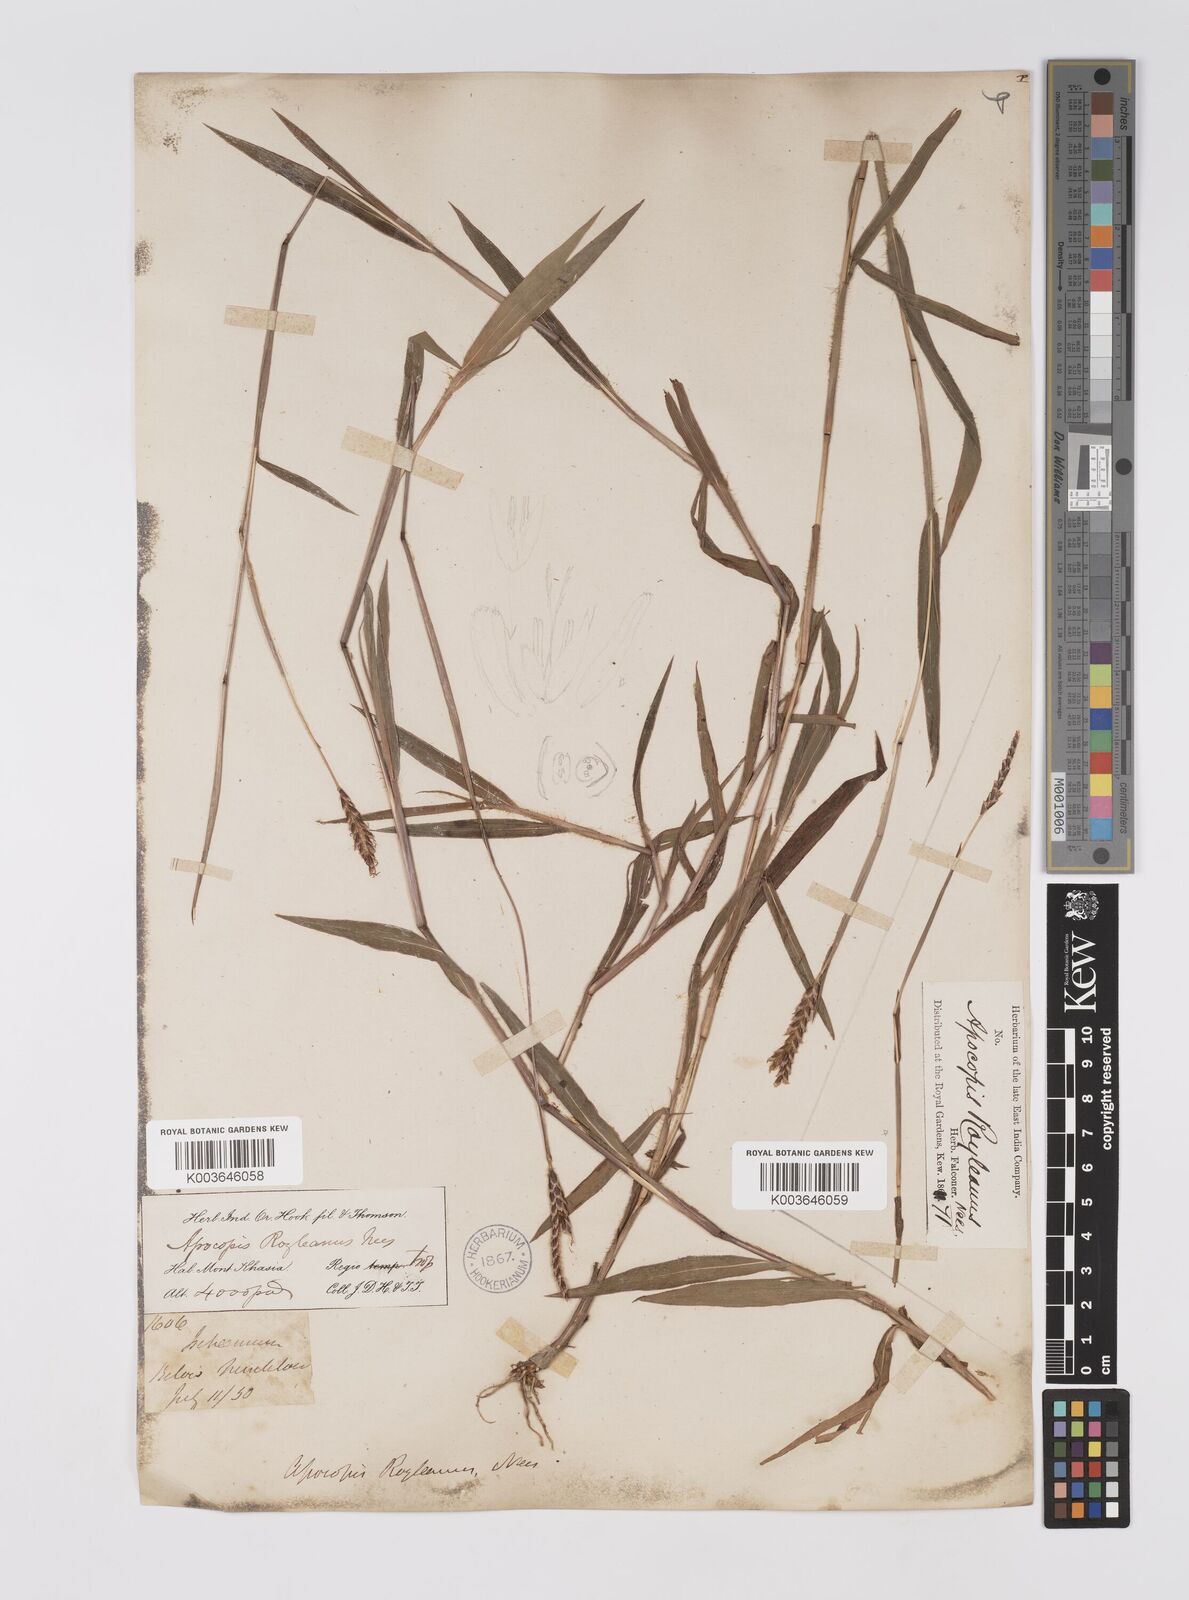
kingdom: Plantae
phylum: Tracheophyta
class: Liliopsida
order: Poales
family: Poaceae
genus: Apocopis
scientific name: Apocopis paleaceus
